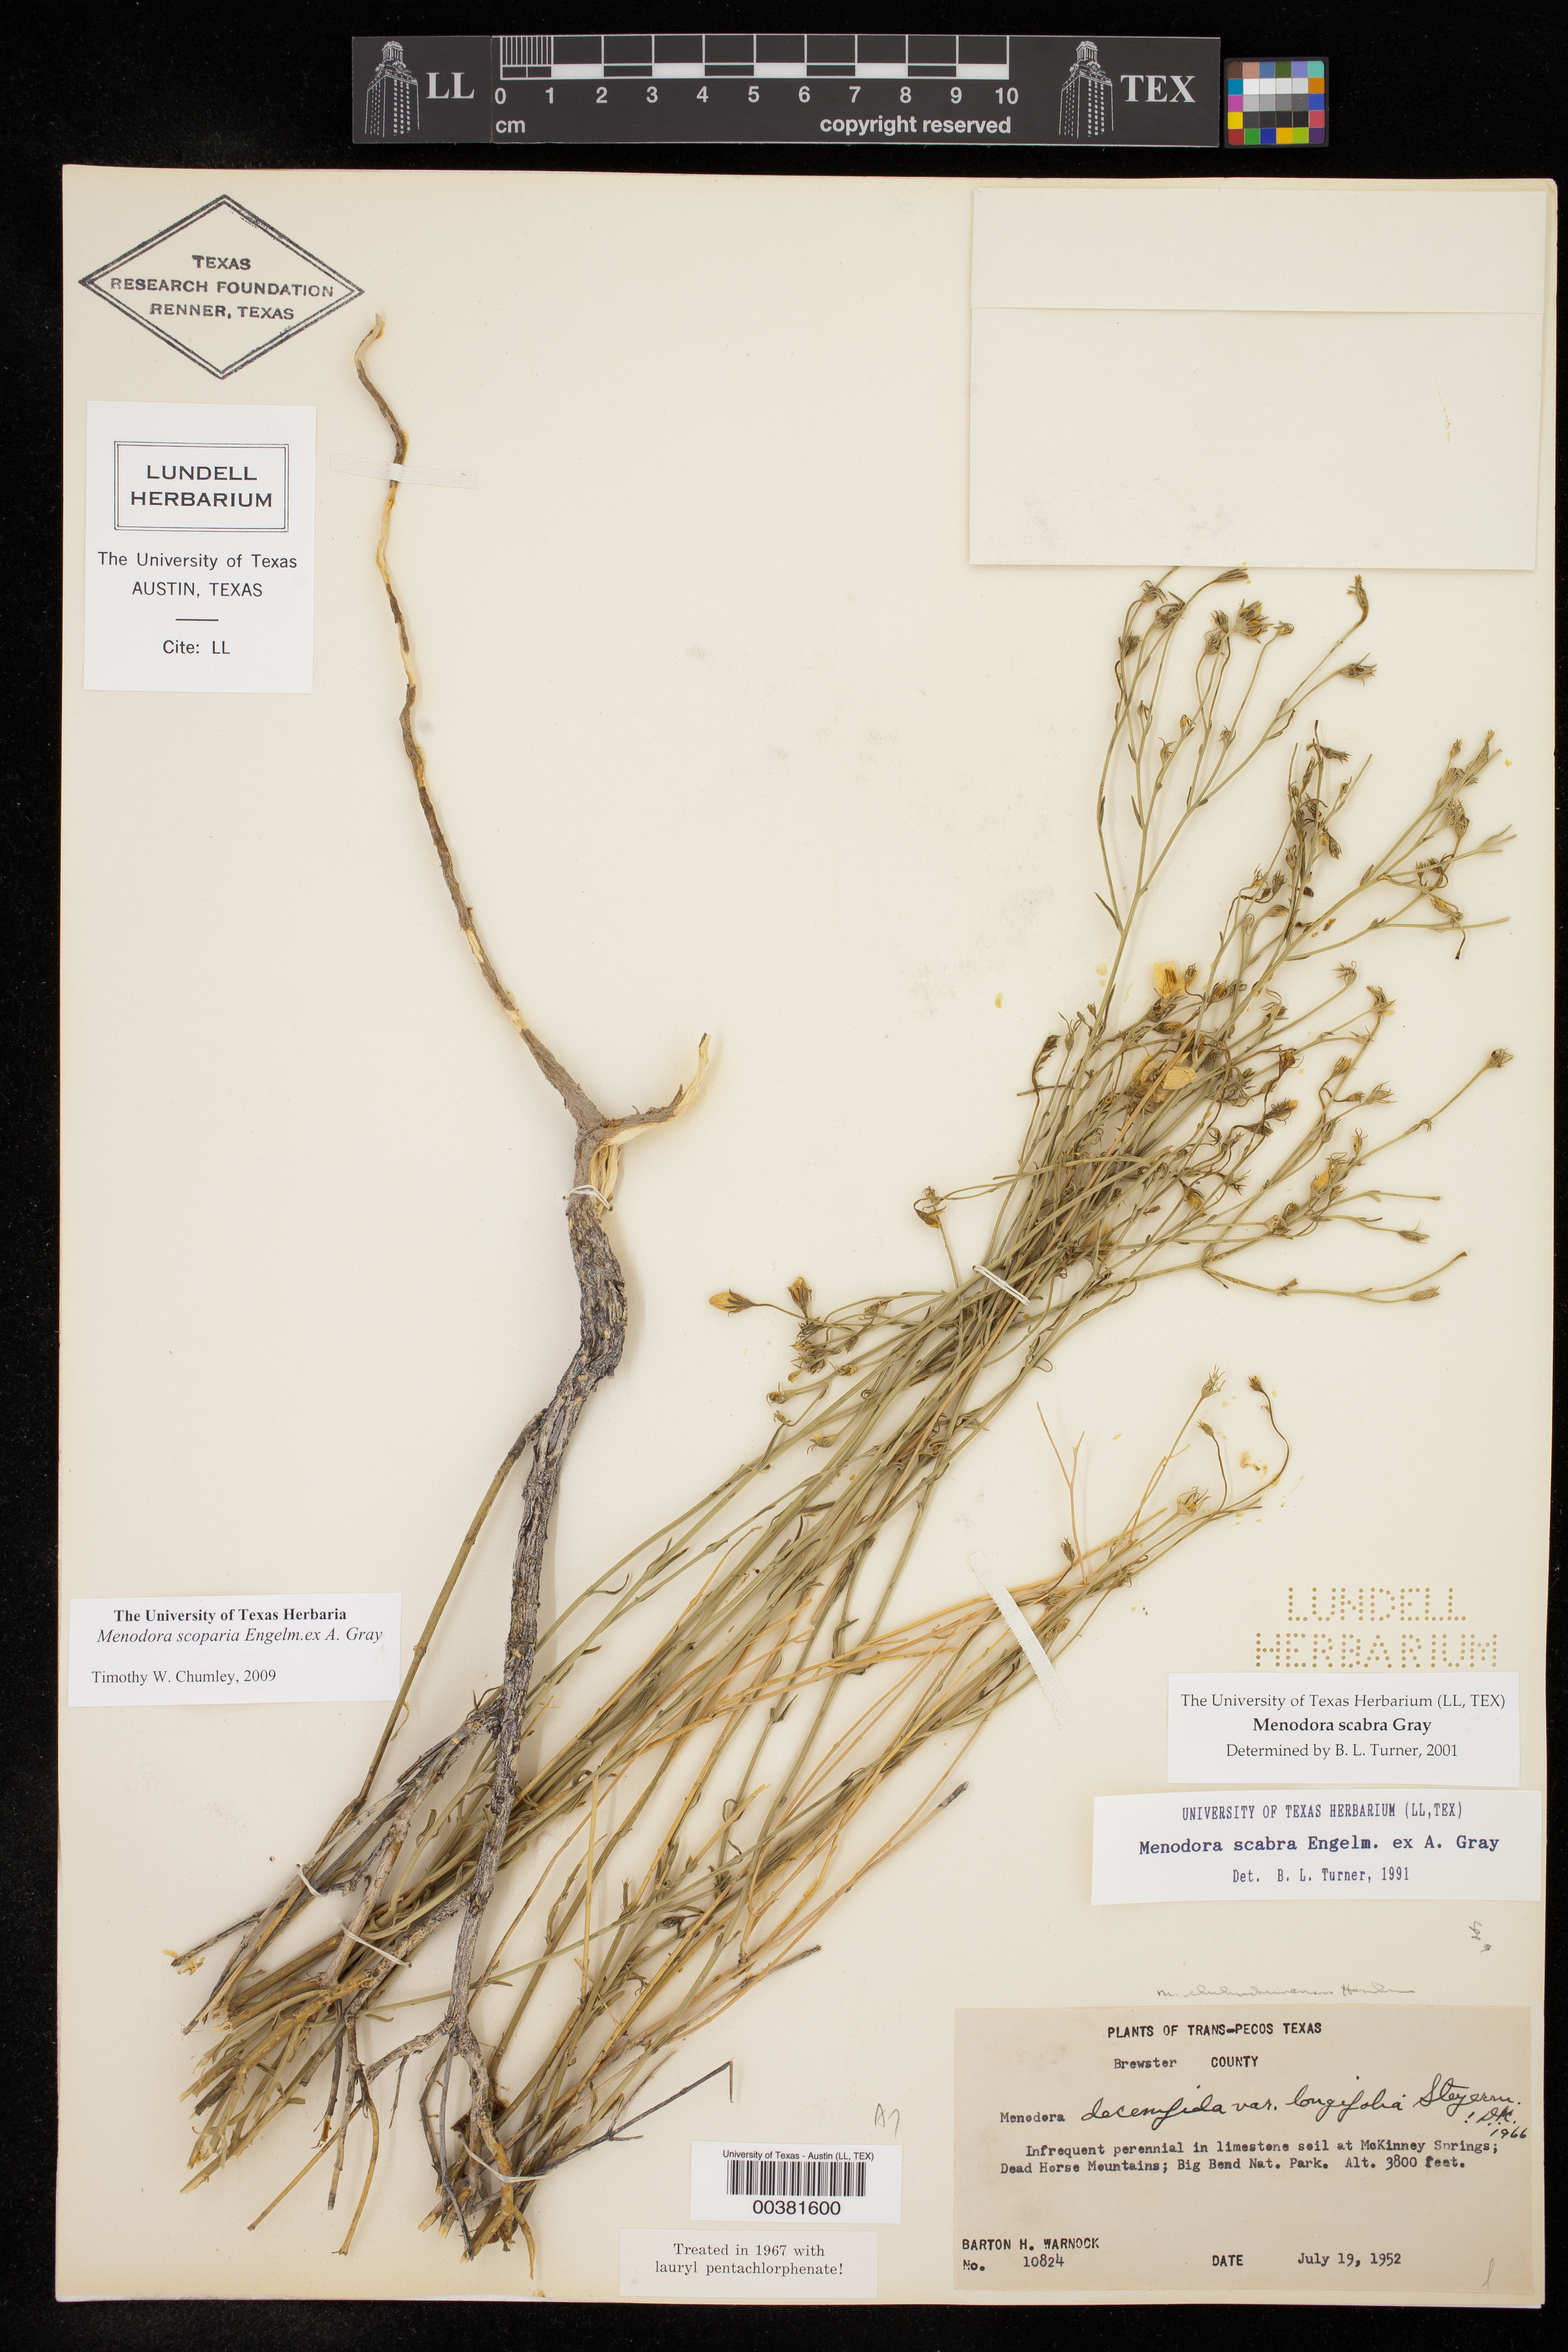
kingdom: Plantae
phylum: Tracheophyta
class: Magnoliopsida
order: Lamiales
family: Oleaceae
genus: Menodora
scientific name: Menodora scabra
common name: Rough menodora
